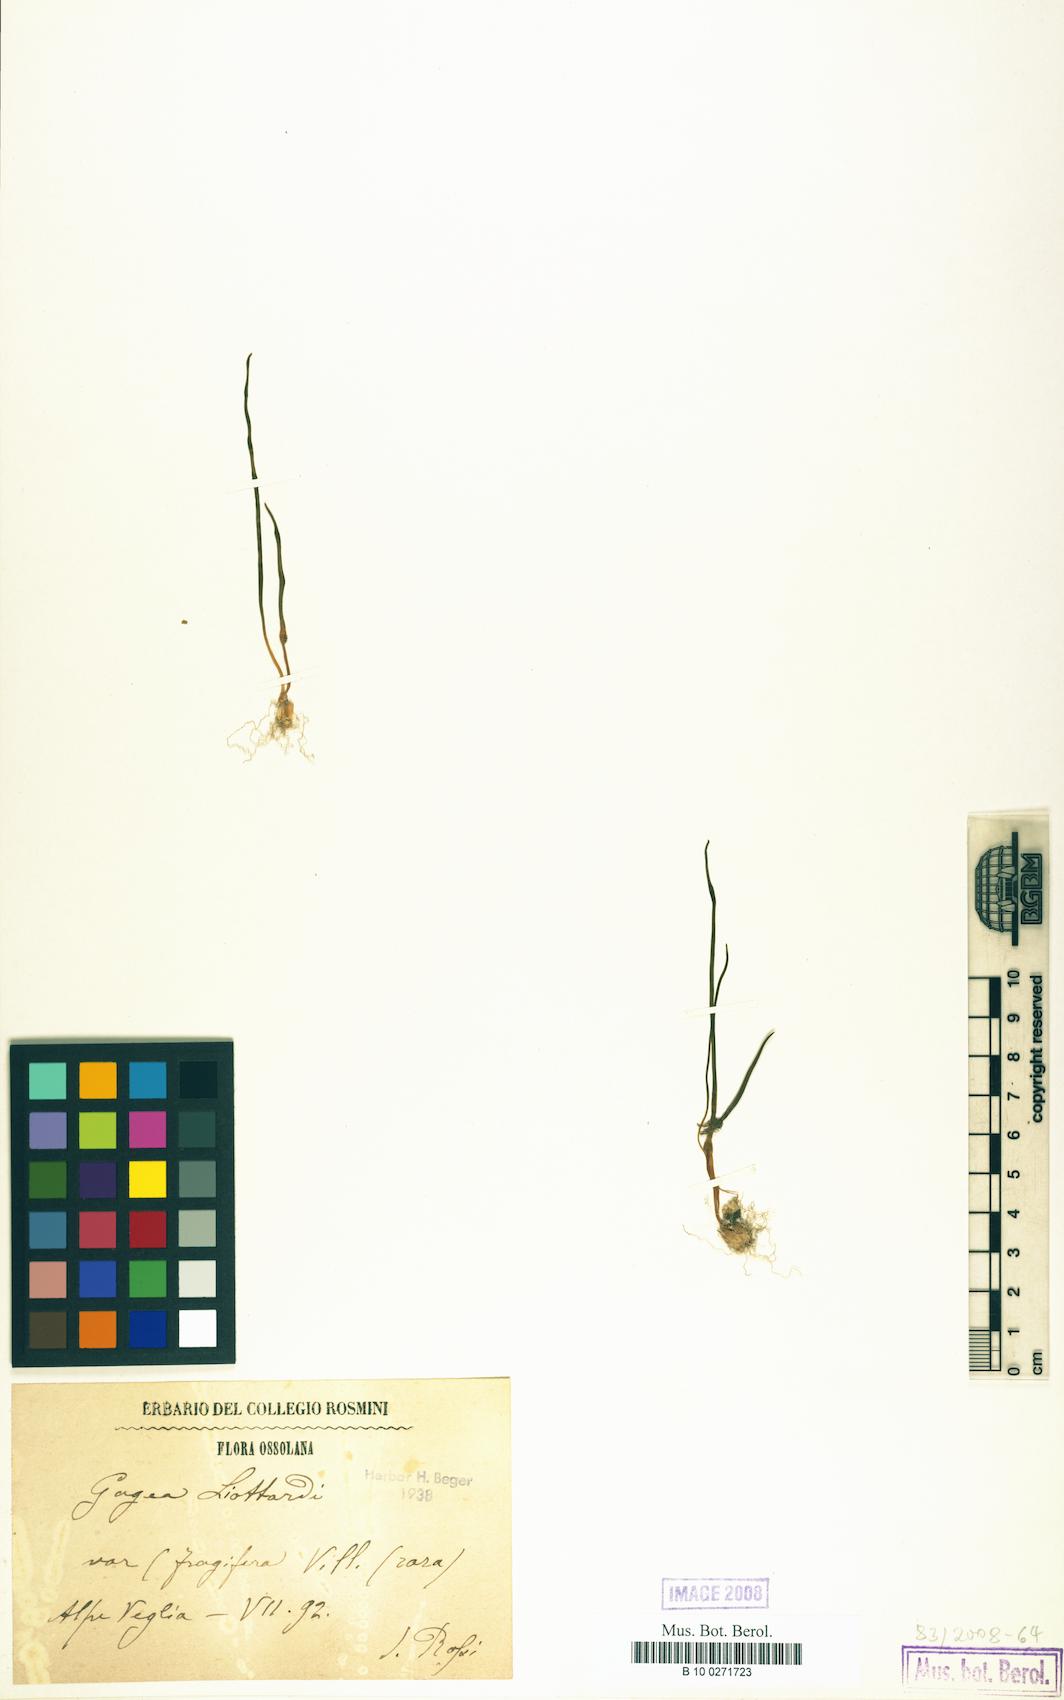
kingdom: Plantae
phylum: Tracheophyta
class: Liliopsida
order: Liliales
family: Liliaceae
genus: Gagea
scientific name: Gagea bohemica
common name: Early star-of-bethlehem
